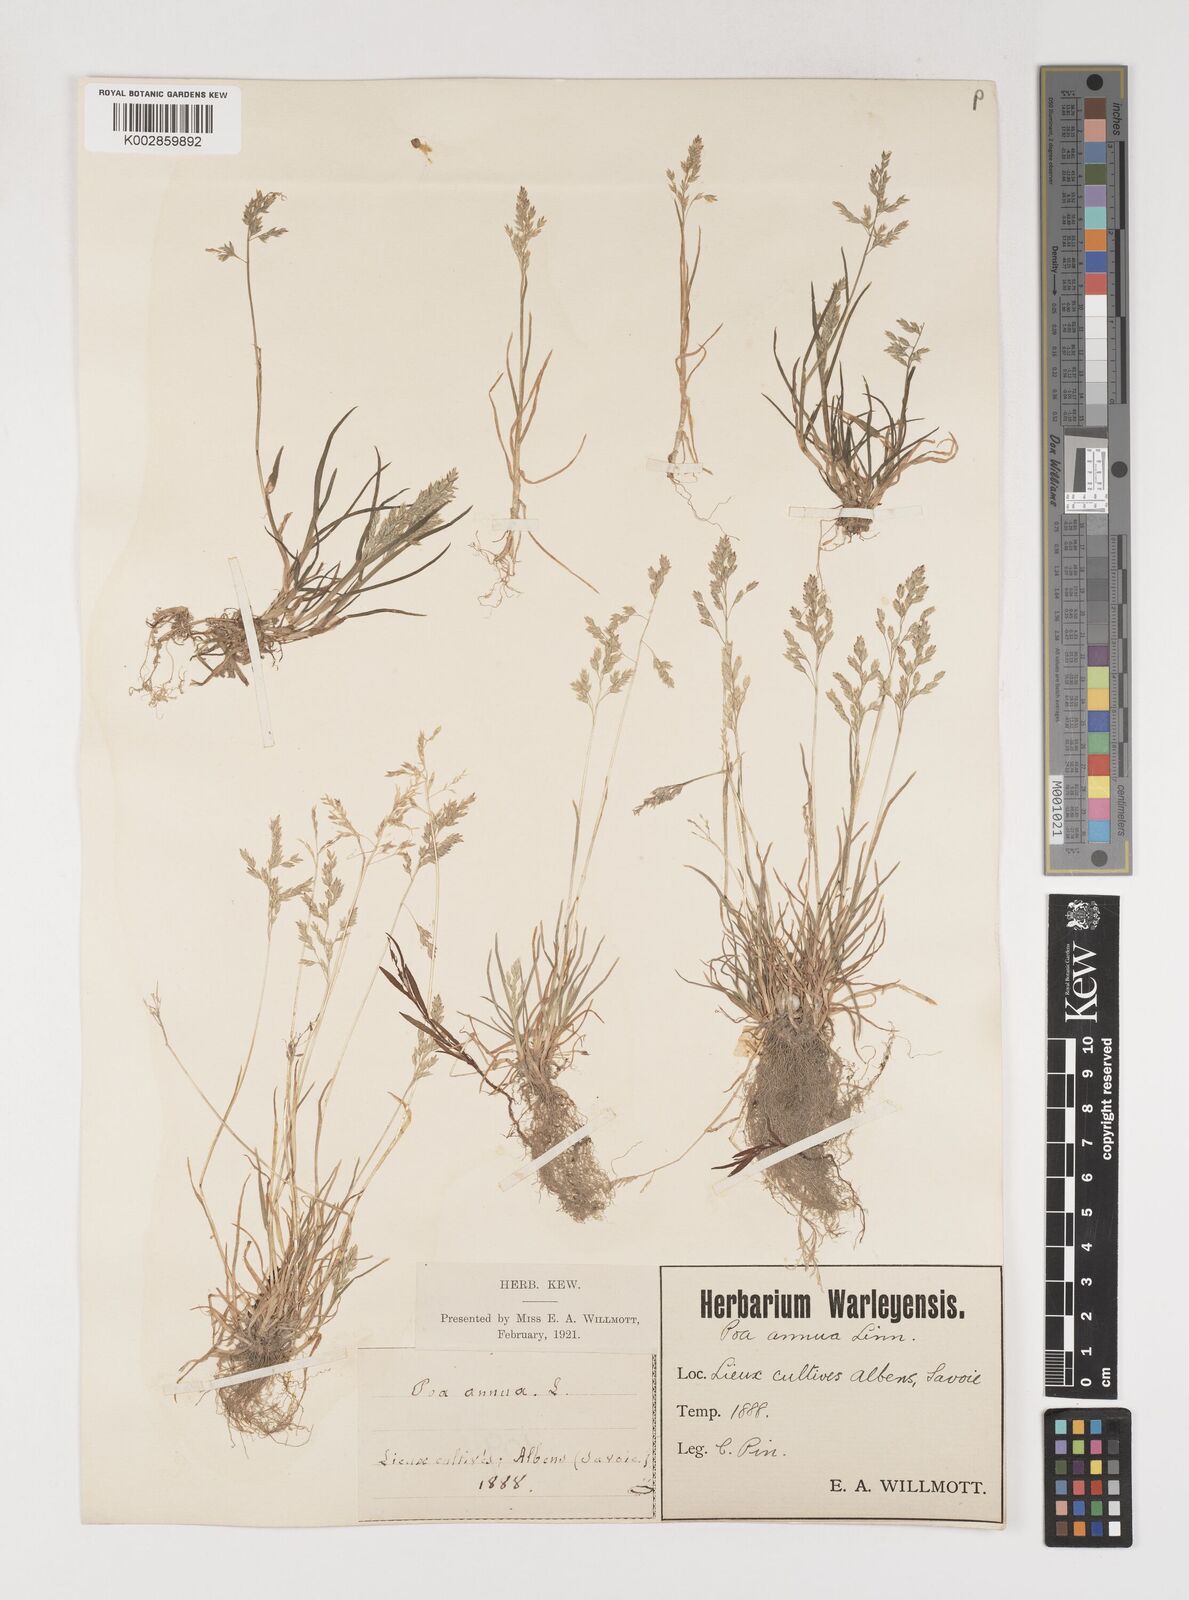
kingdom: Plantae
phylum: Tracheophyta
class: Liliopsida
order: Poales
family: Poaceae
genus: Poa
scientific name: Poa annua
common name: Annual bluegrass
